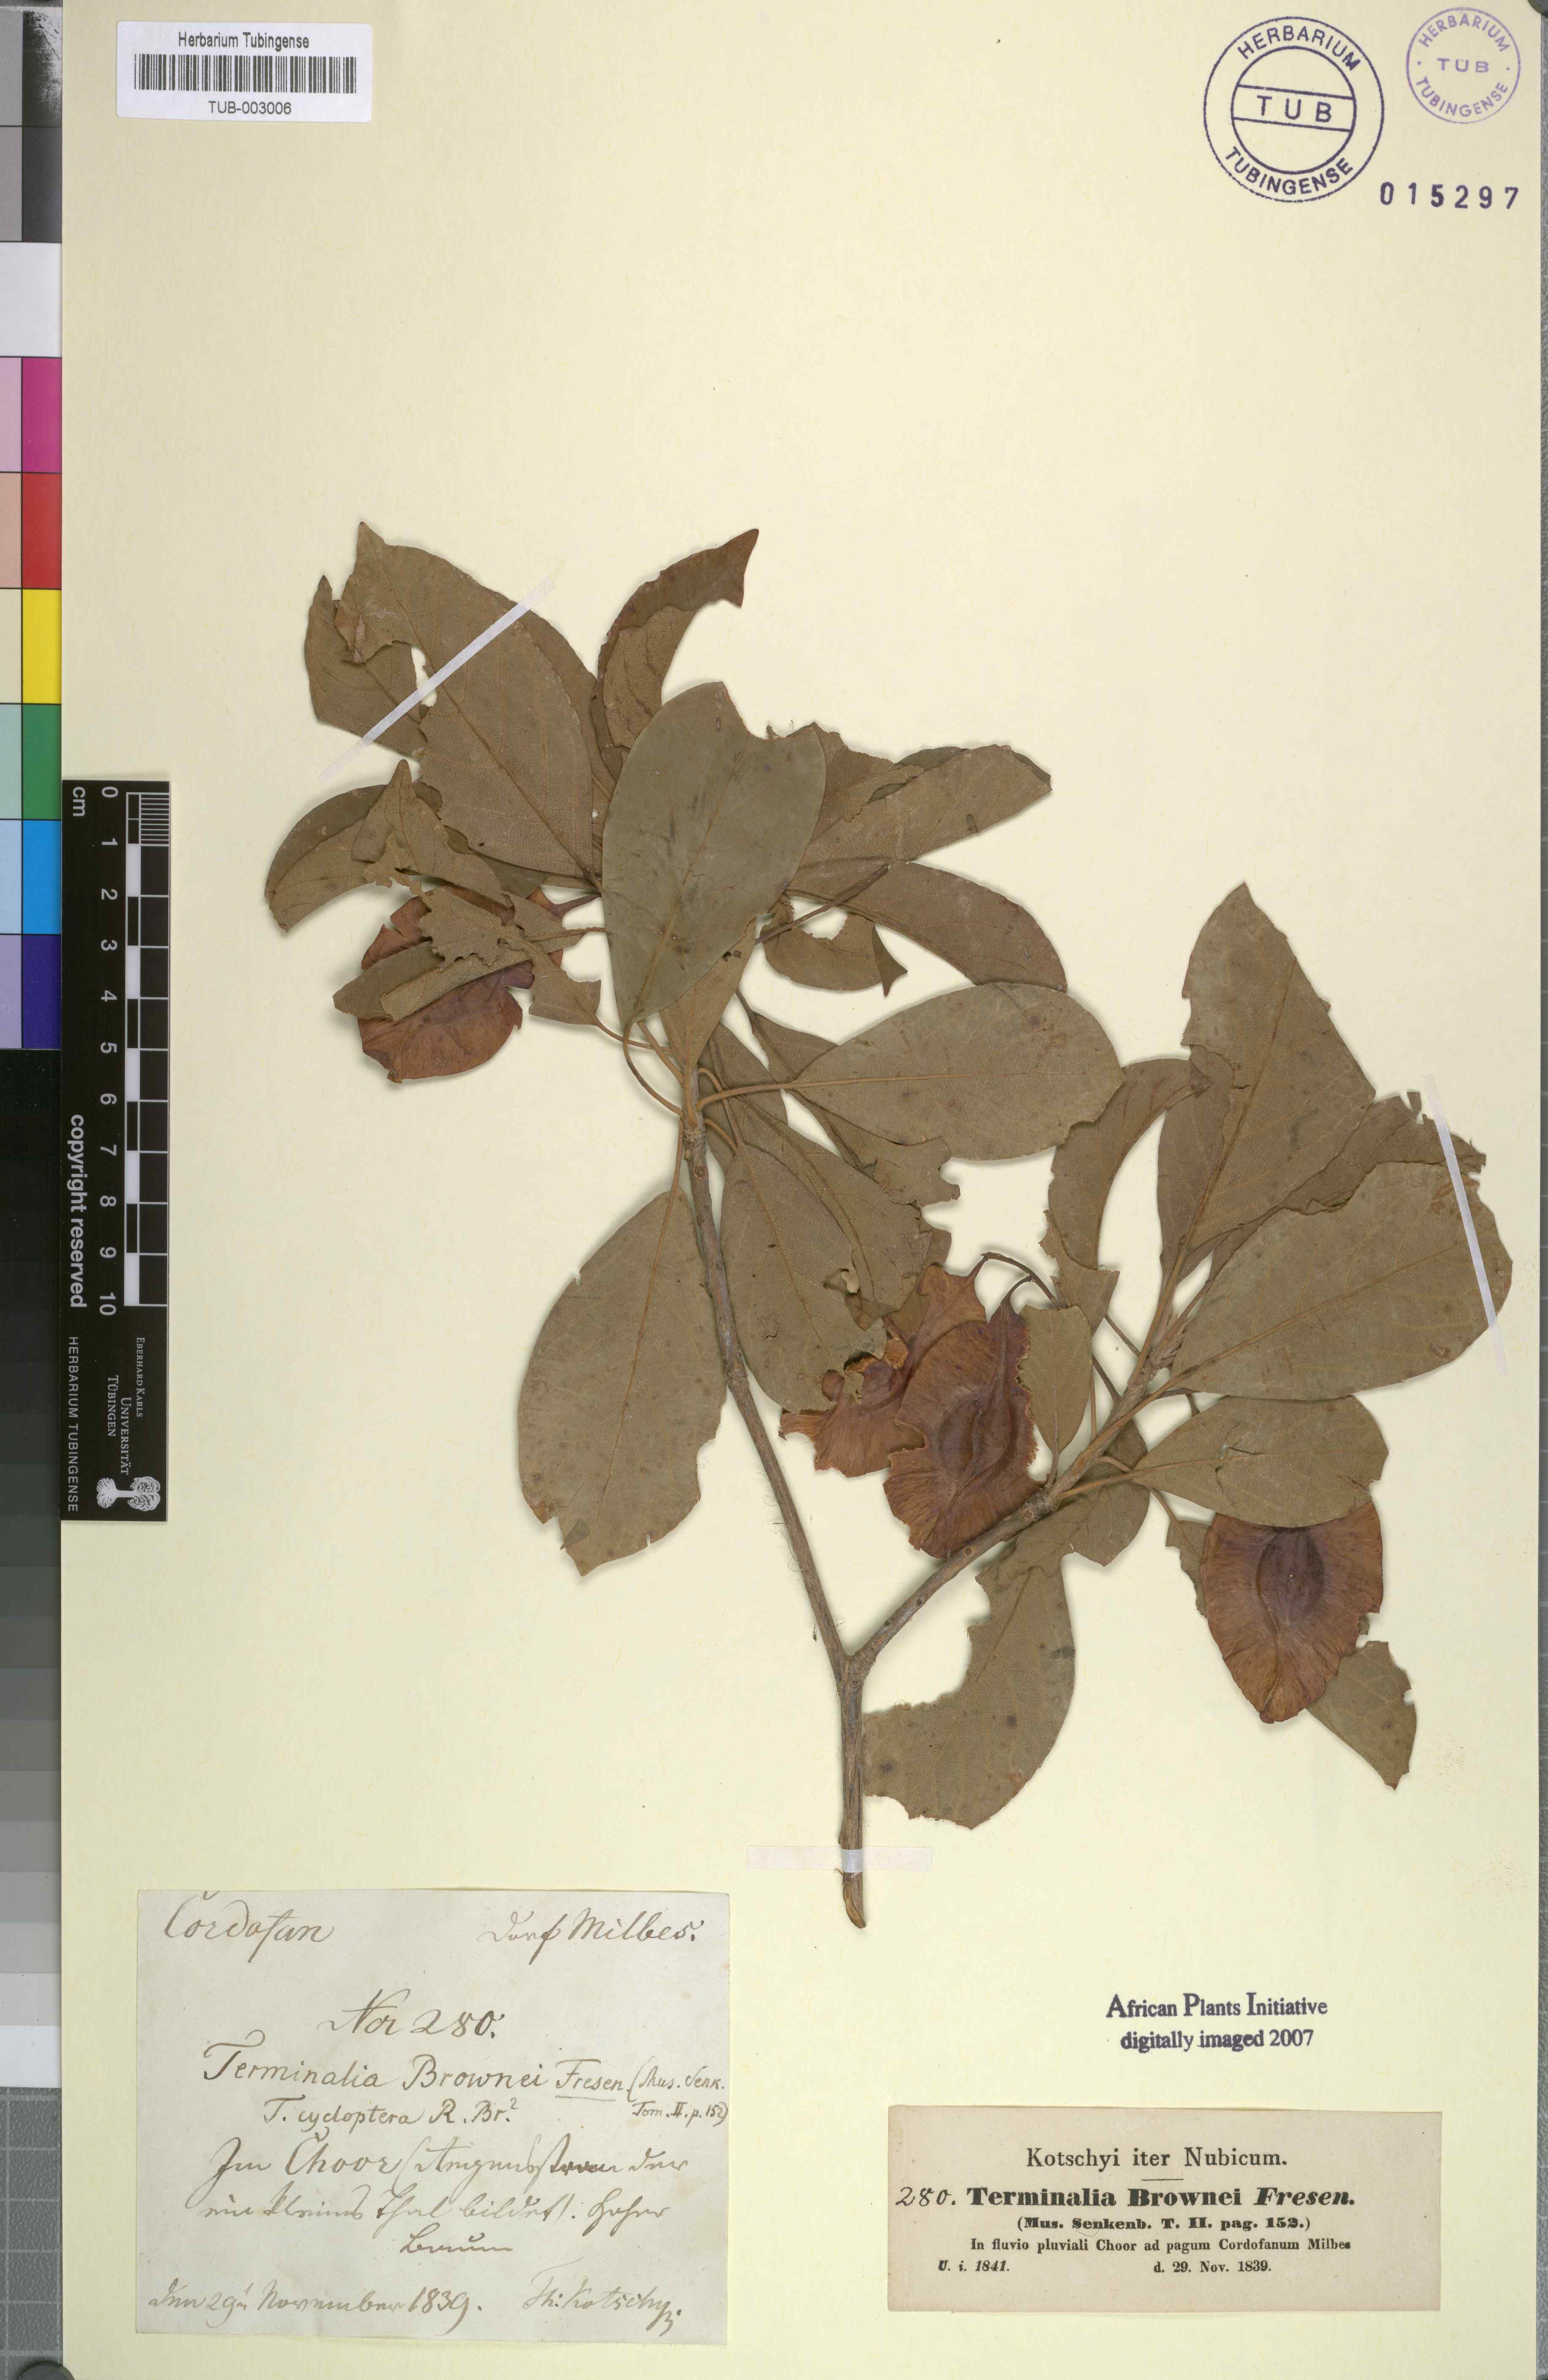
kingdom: Plantae
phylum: Tracheophyta
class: Magnoliopsida
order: Myrtales
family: Combretaceae
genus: Terminalia
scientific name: Terminalia brownii
